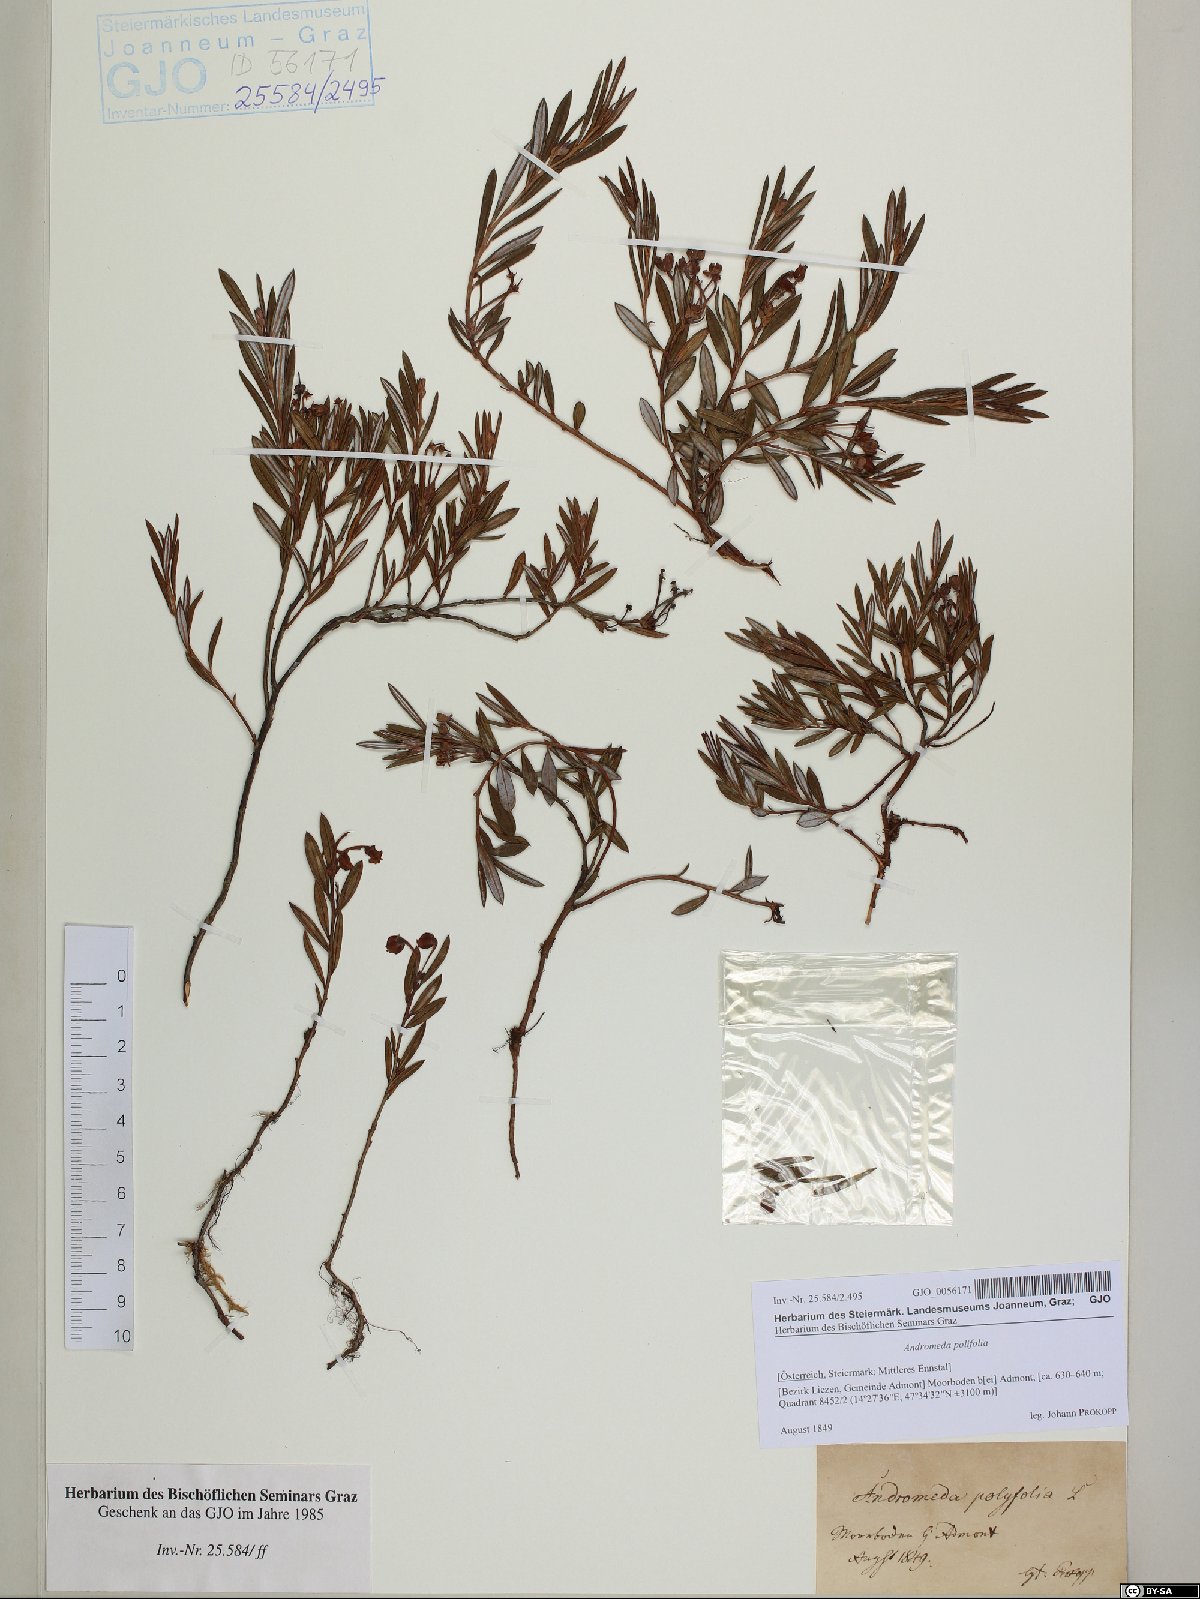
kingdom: Plantae
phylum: Tracheophyta
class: Magnoliopsida
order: Ericales
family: Ericaceae
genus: Andromeda
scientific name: Andromeda polifolia
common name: Bog-rosemary
